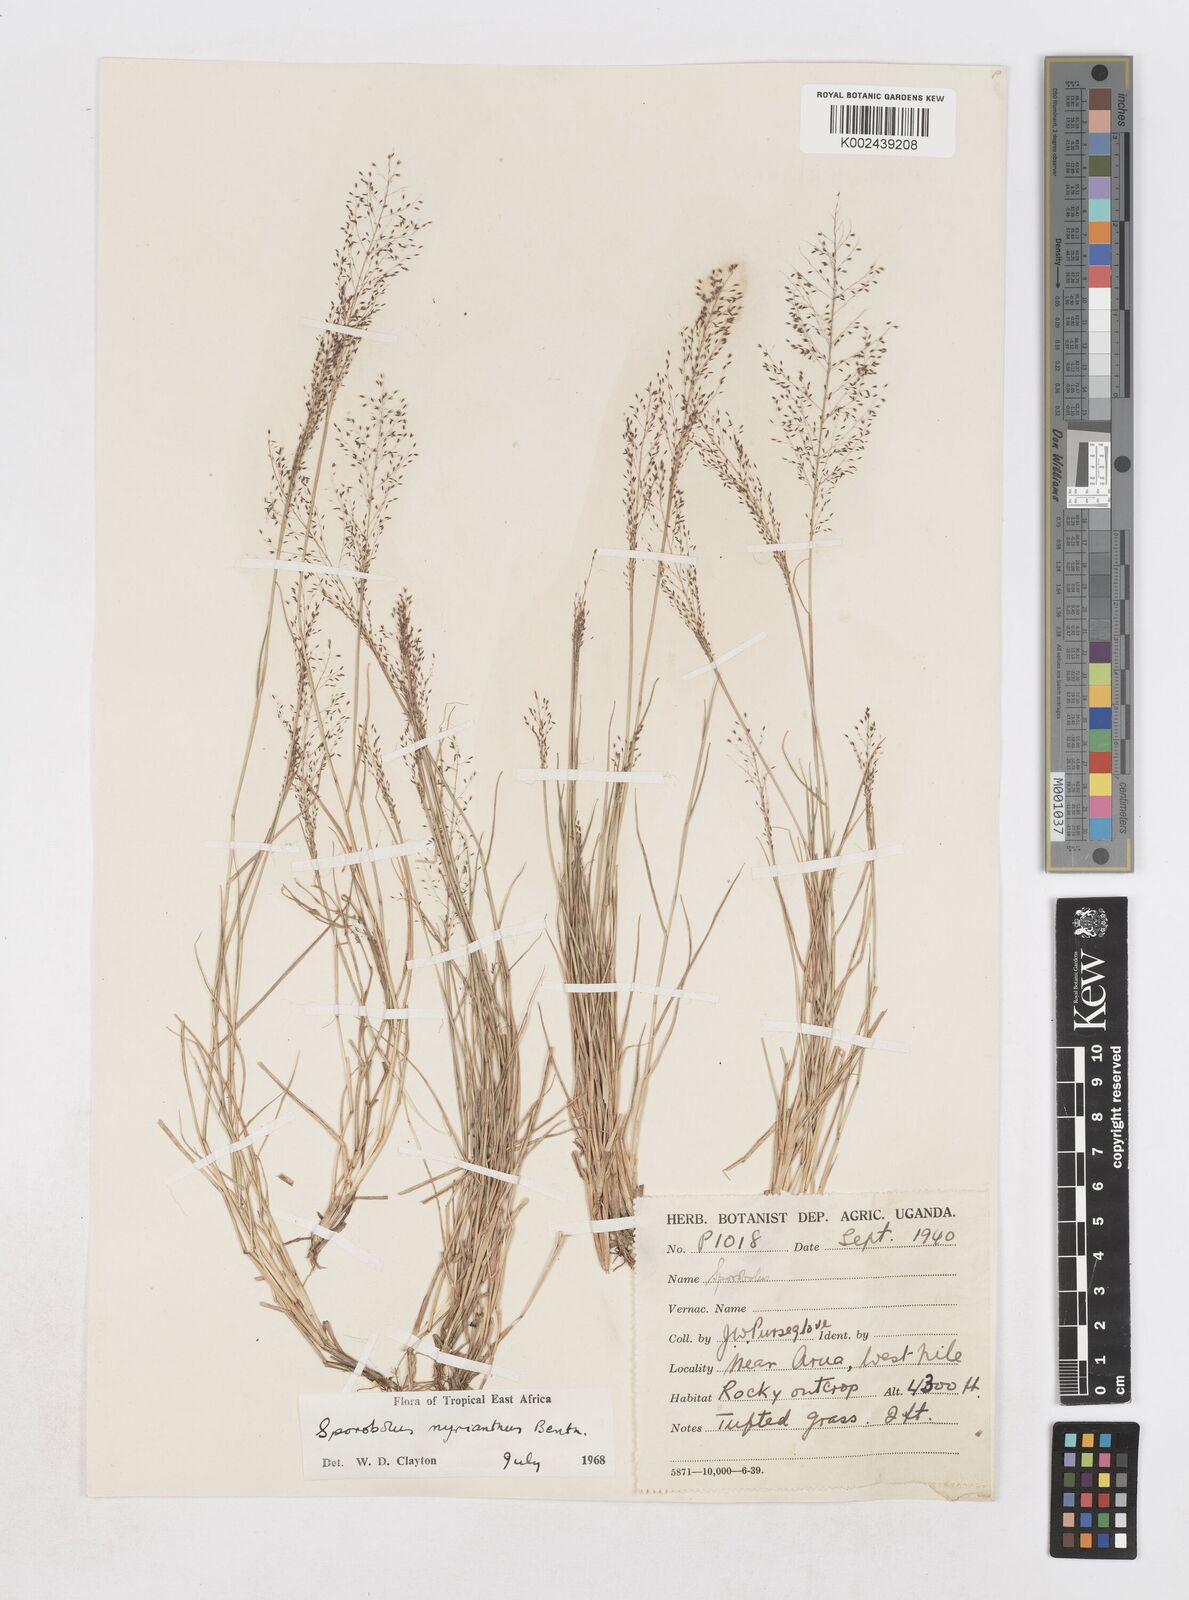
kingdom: Plantae
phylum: Tracheophyta
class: Liliopsida
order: Poales
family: Poaceae
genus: Sporobolus
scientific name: Sporobolus myrianthus
